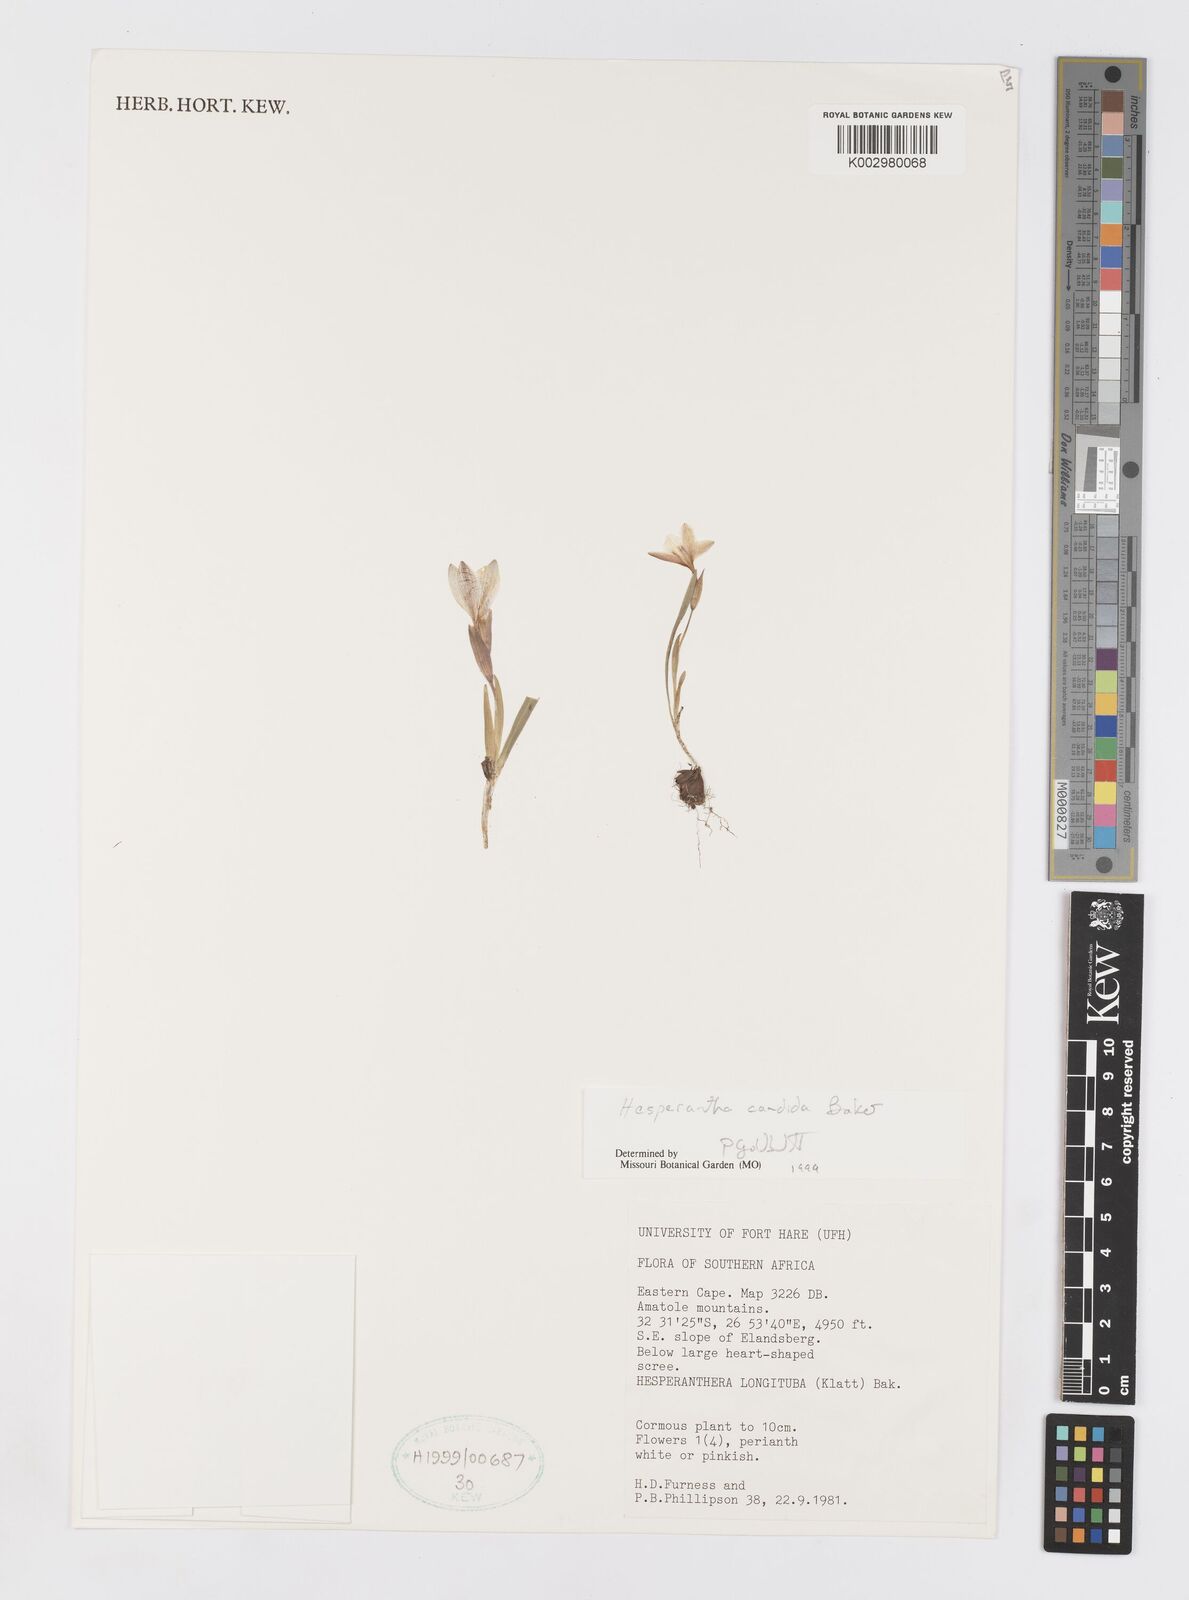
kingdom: Plantae
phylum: Tracheophyta
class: Liliopsida
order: Asparagales
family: Iridaceae
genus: Hesperantha
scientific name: Hesperantha candida
